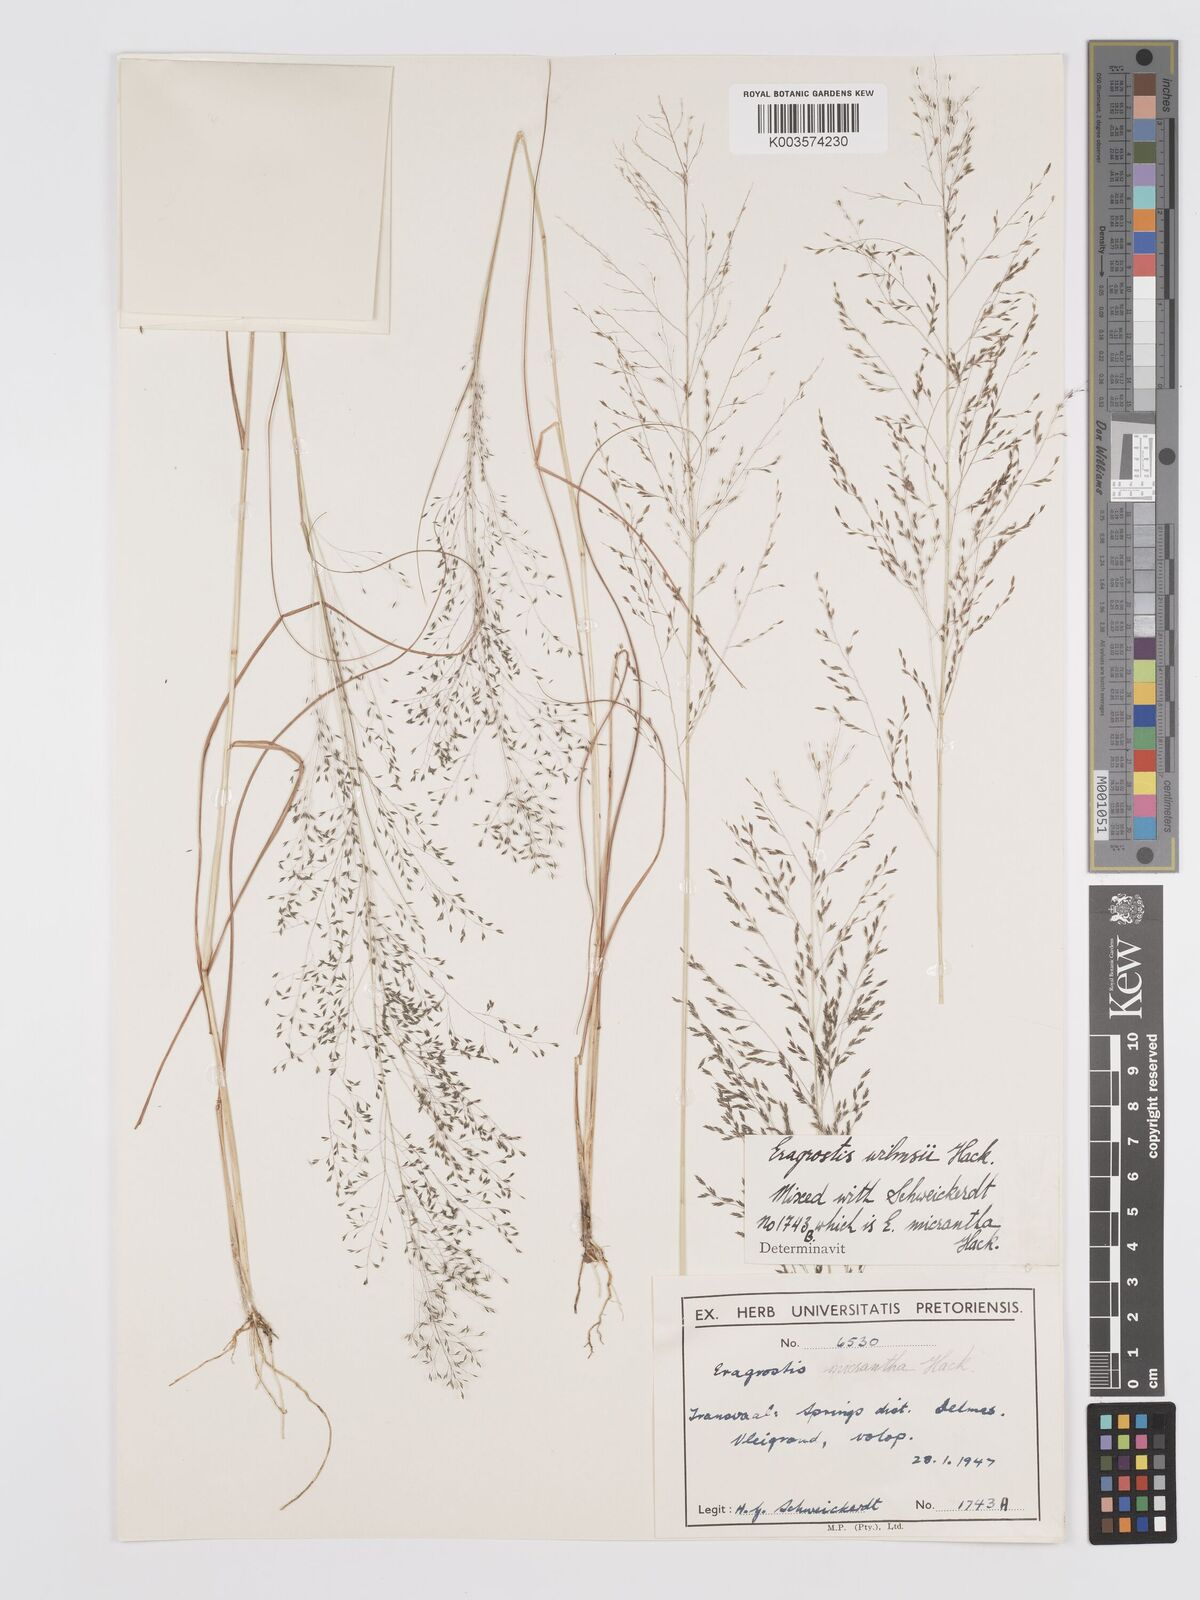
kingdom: Plantae
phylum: Tracheophyta
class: Liliopsida
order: Poales
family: Poaceae
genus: Eragrostis
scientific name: Eragrostis micrantha
